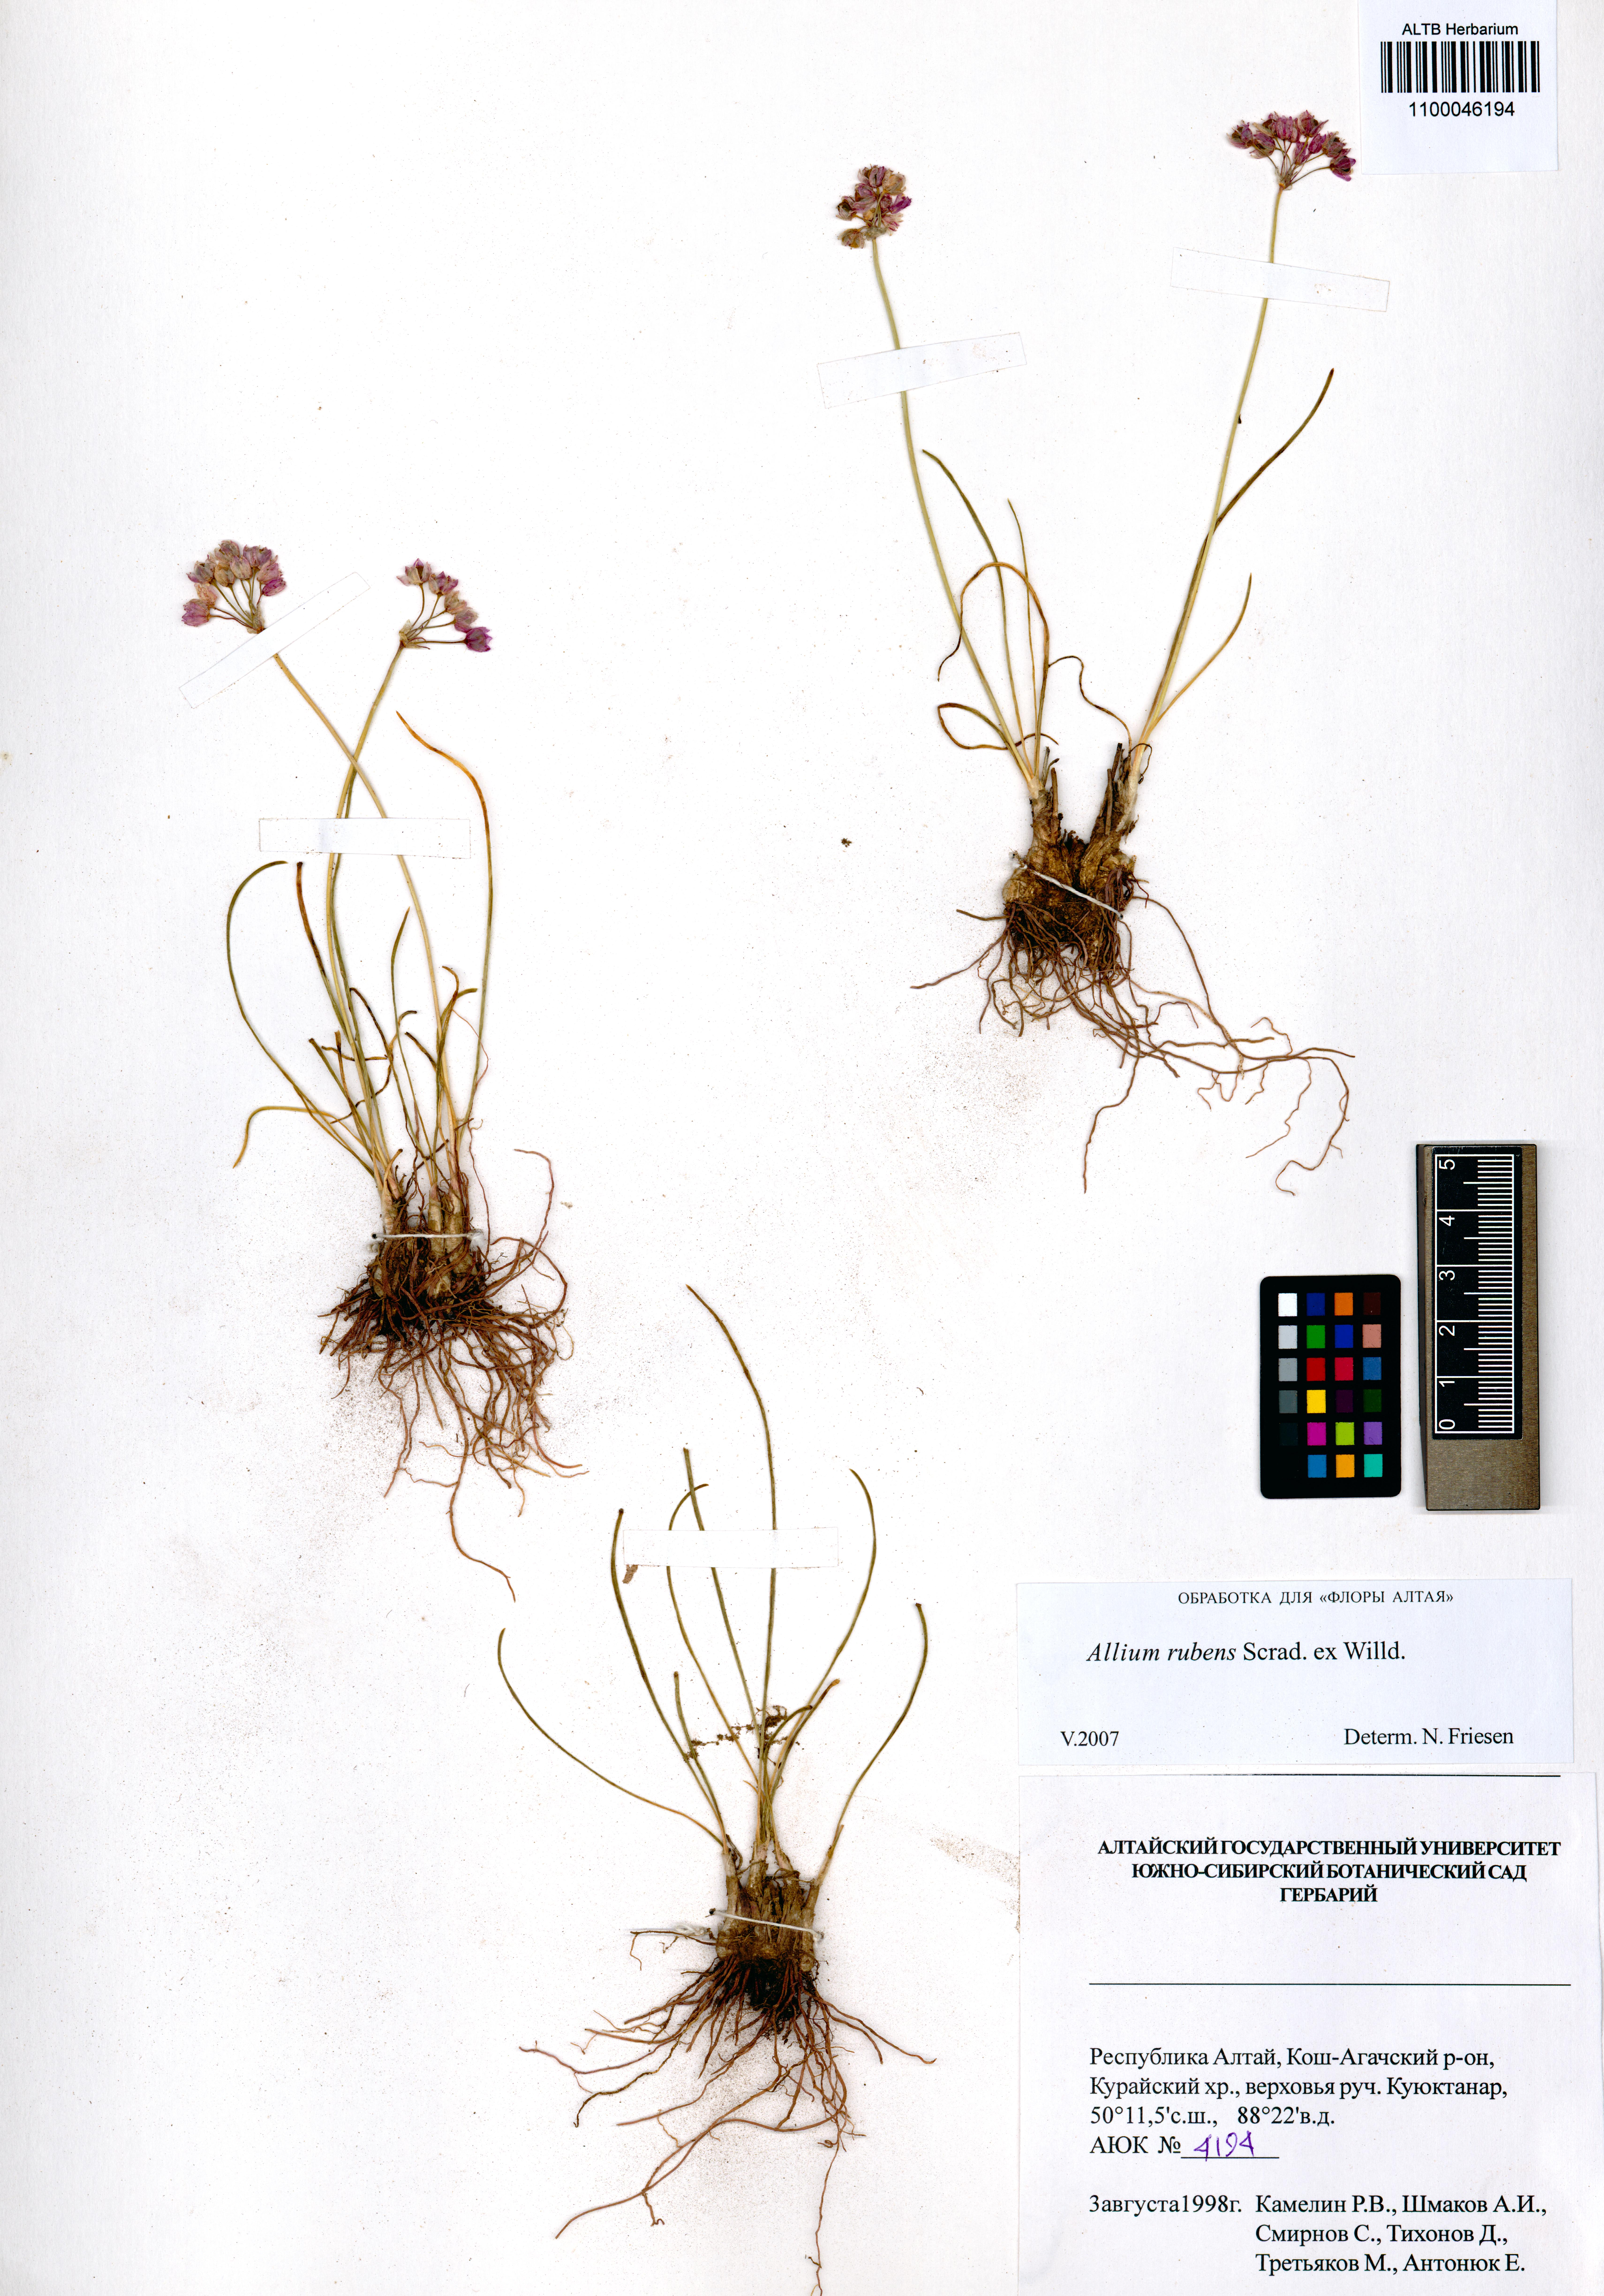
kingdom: Plantae
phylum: Tracheophyta
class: Liliopsida
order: Asparagales
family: Amaryllidaceae
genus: Allium
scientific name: Allium rubens
